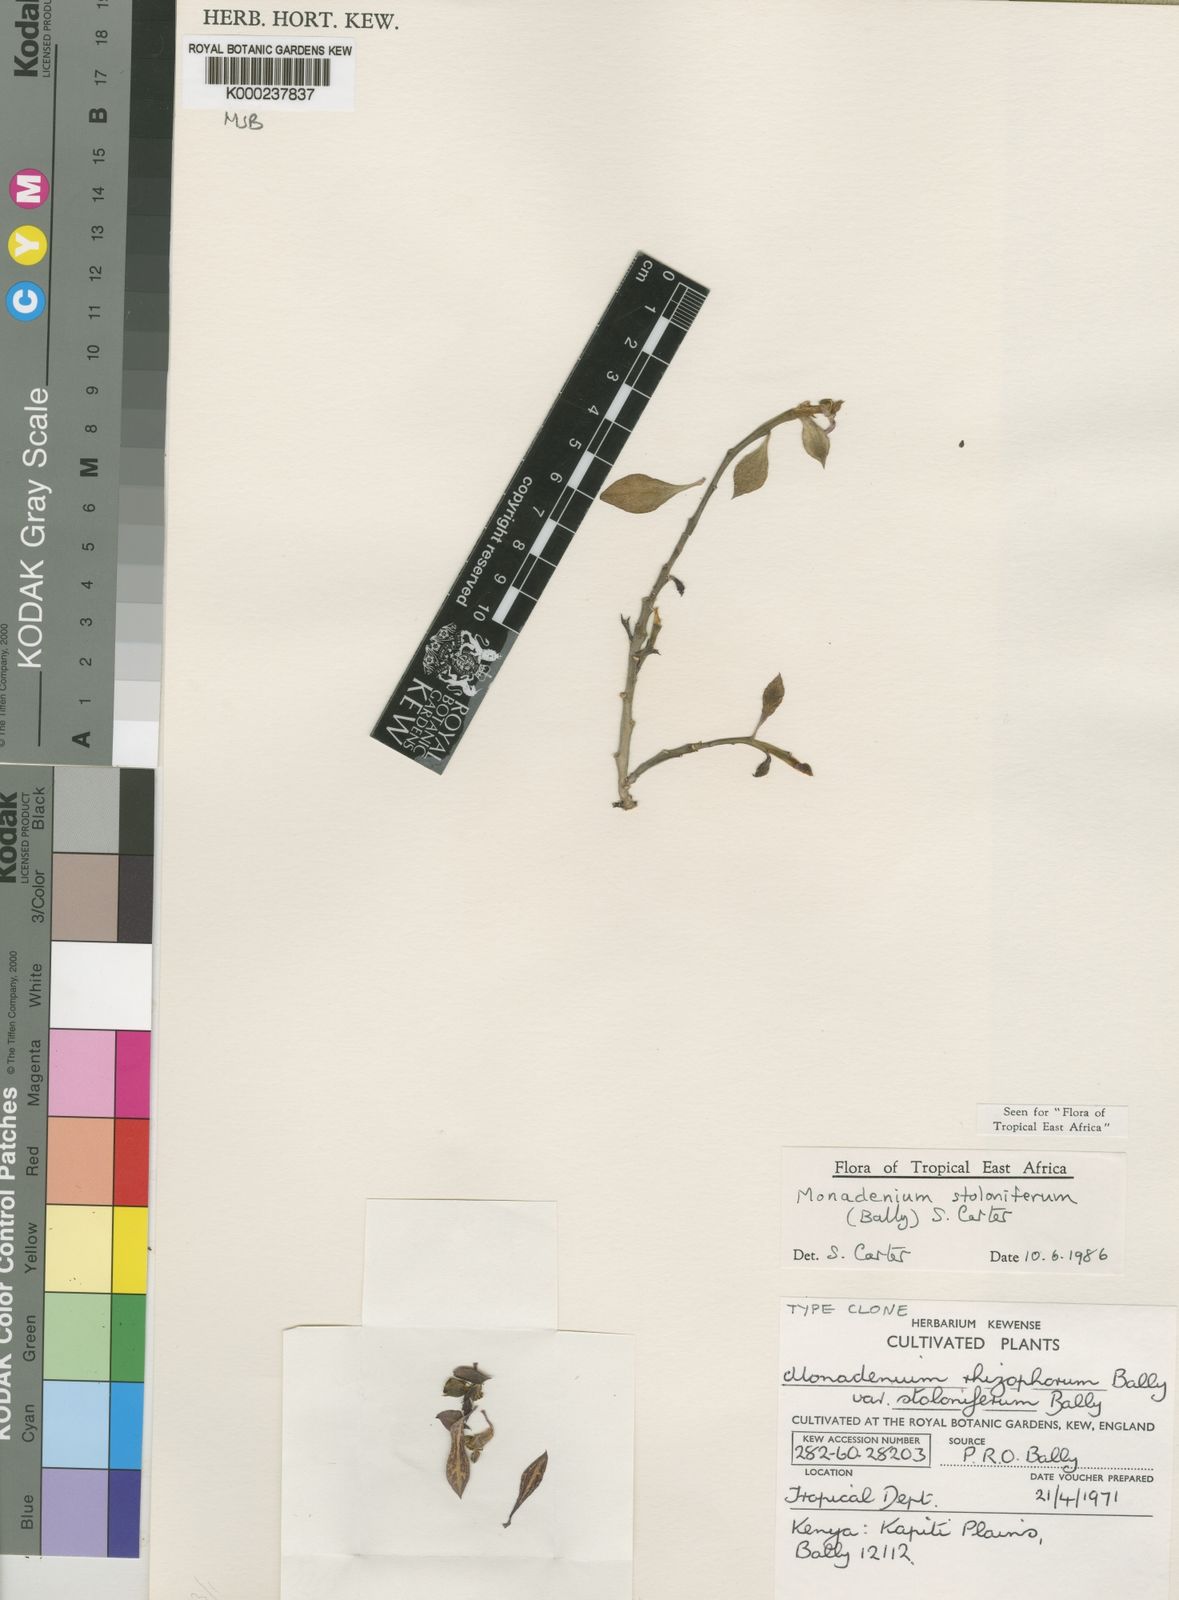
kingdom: Plantae
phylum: Tracheophyta
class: Magnoliopsida
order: Malpighiales
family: Euphorbiaceae
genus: Euphorbia
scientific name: Euphorbia neostolonifera
